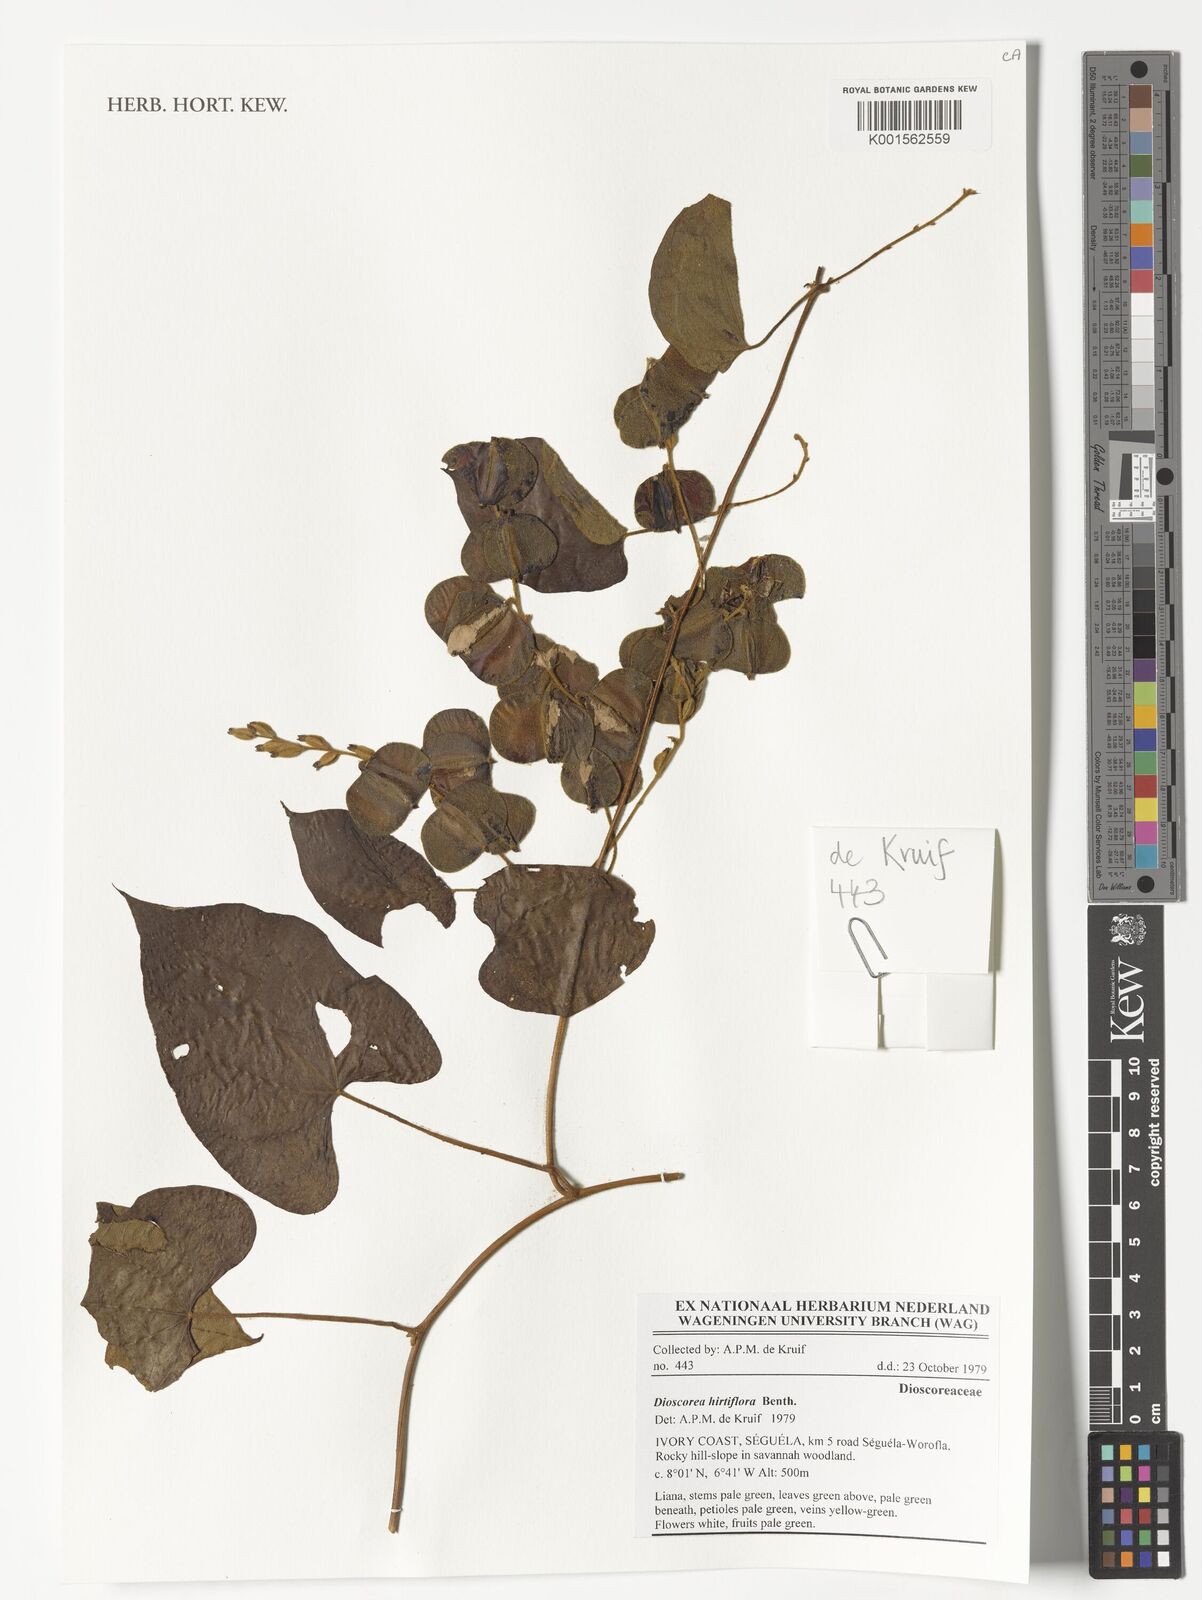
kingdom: Plantae
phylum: Tracheophyta
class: Liliopsida
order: Dioscoreales
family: Dioscoreaceae
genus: Dioscorea
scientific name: Dioscorea hirtiflora
